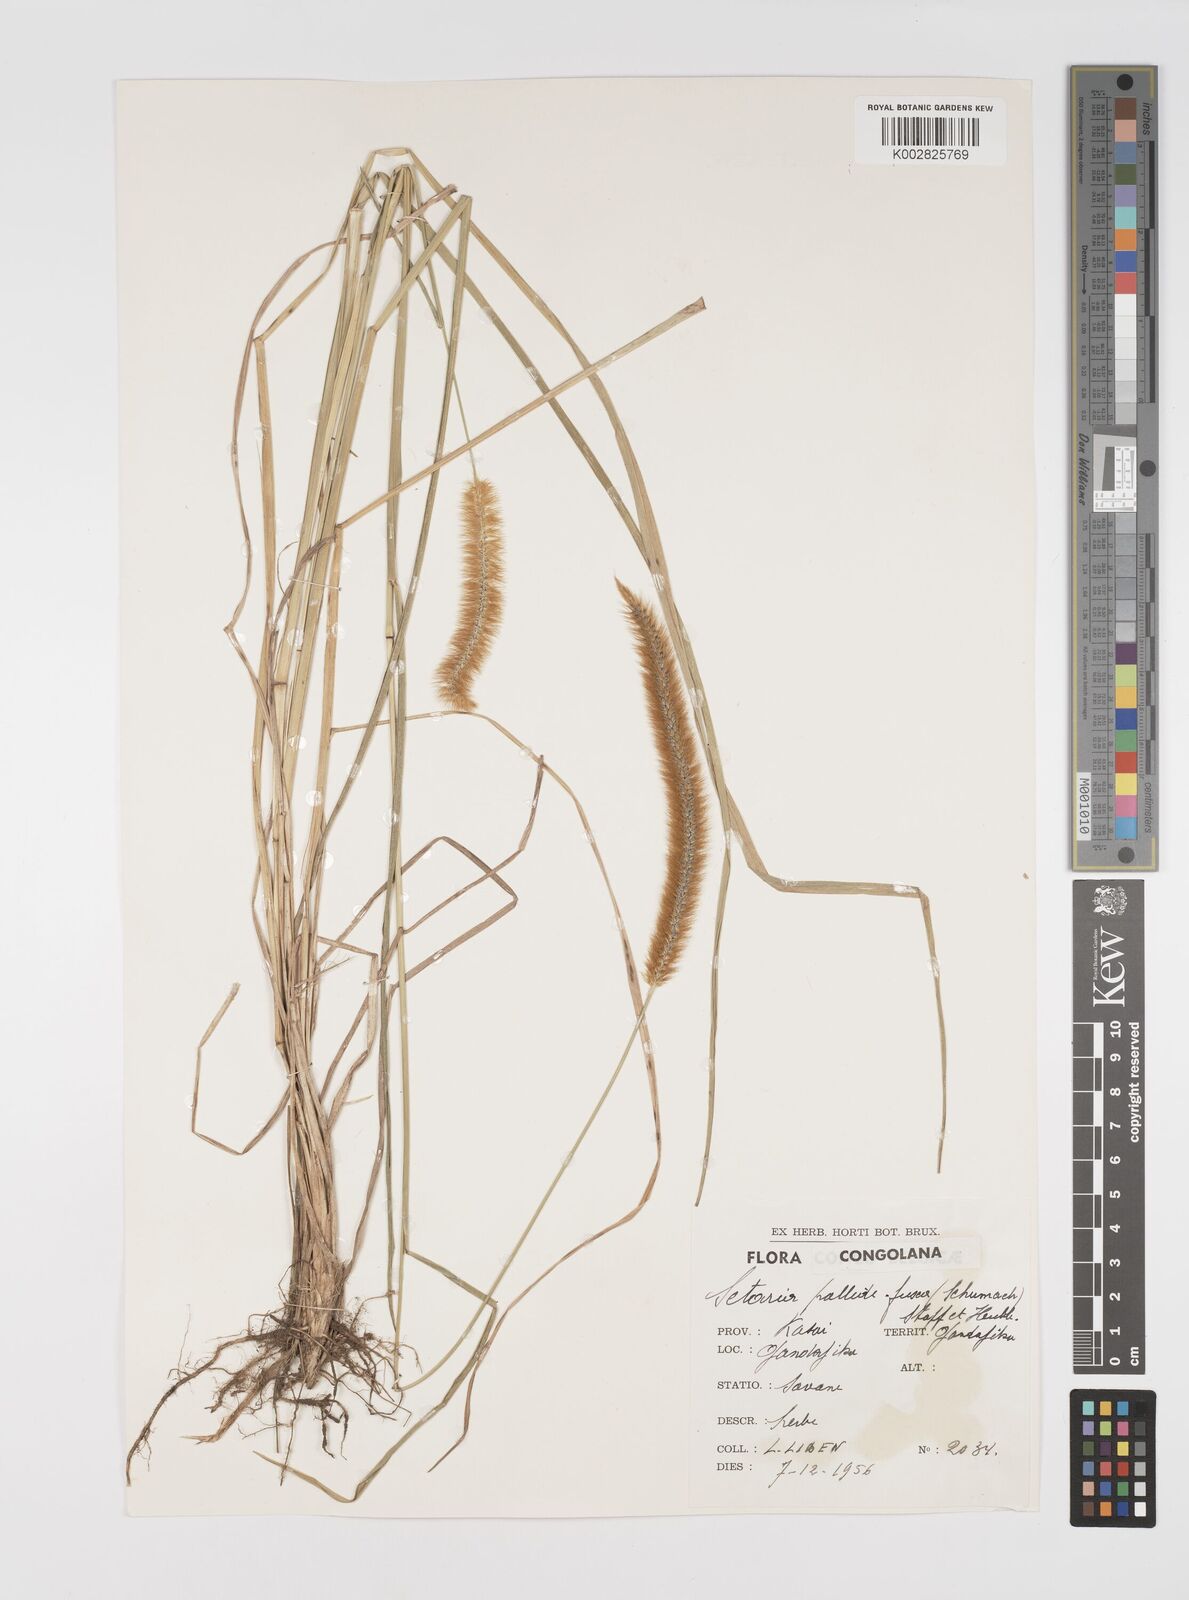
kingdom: Plantae
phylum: Tracheophyta
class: Liliopsida
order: Poales
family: Poaceae
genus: Setaria
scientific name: Setaria sphacelata
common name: African bristlegrass
